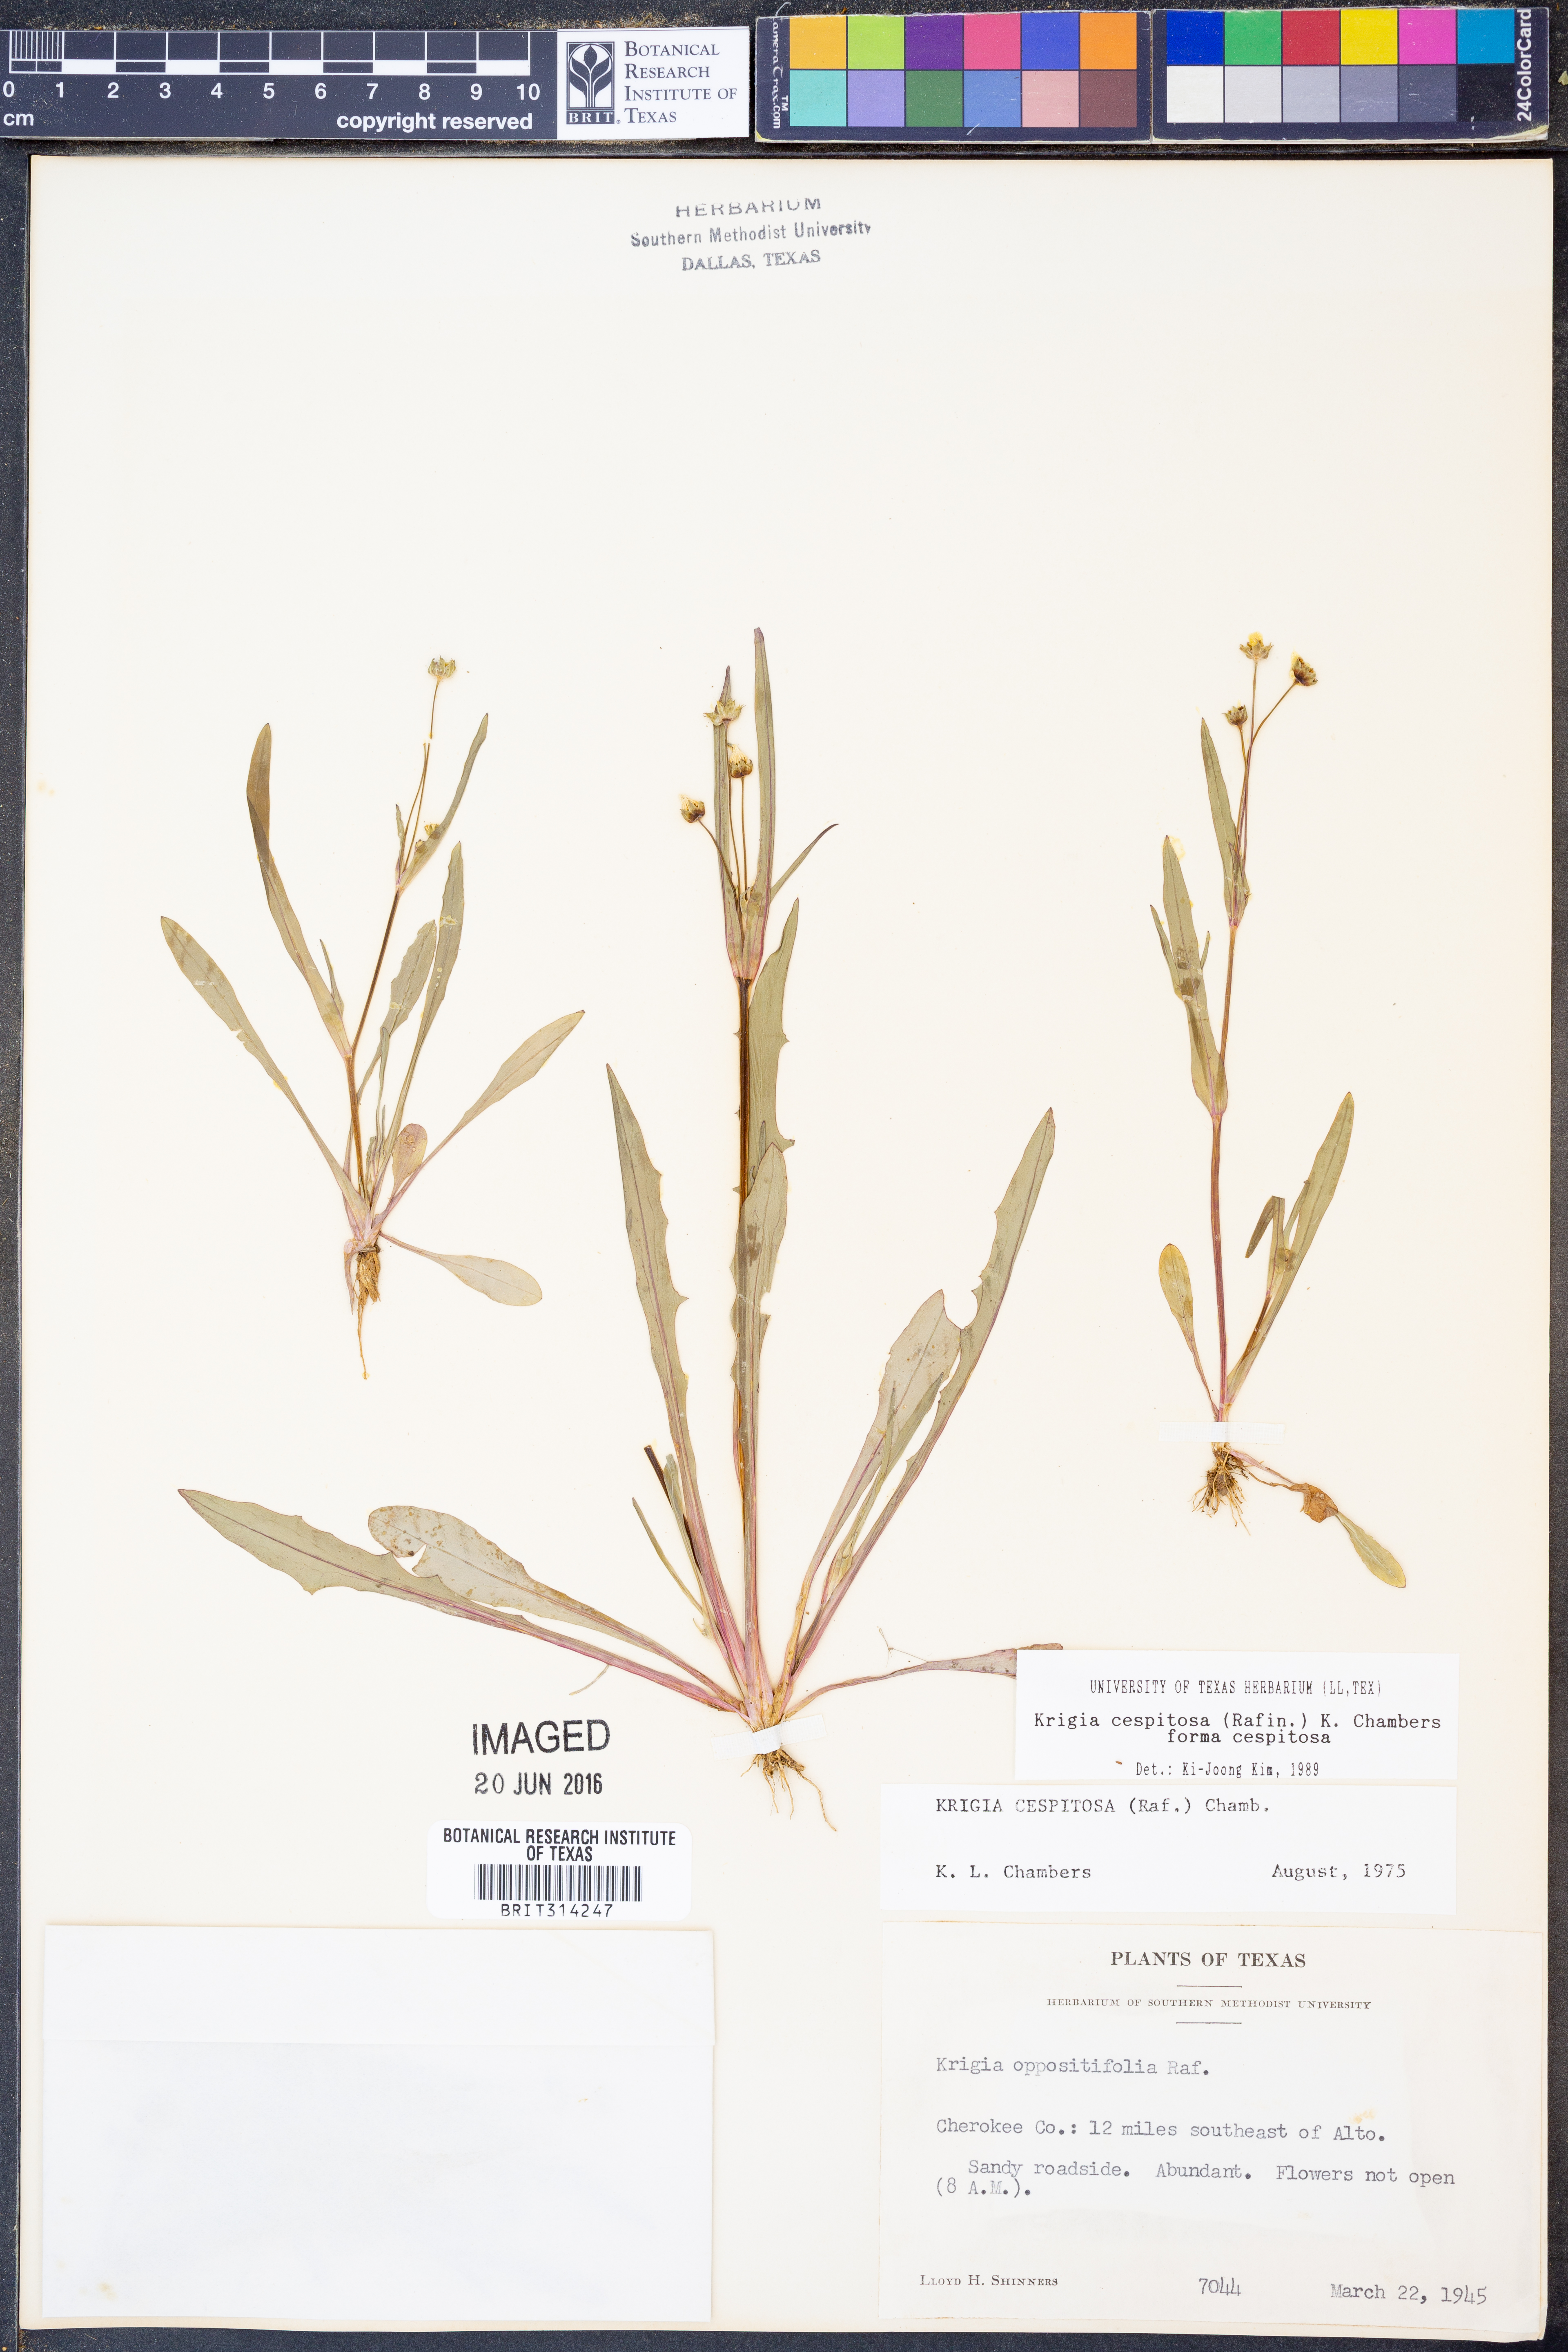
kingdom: Plantae
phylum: Tracheophyta
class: Magnoliopsida
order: Asterales
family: Asteraceae
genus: Krigia
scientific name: Krigia cespitosa
